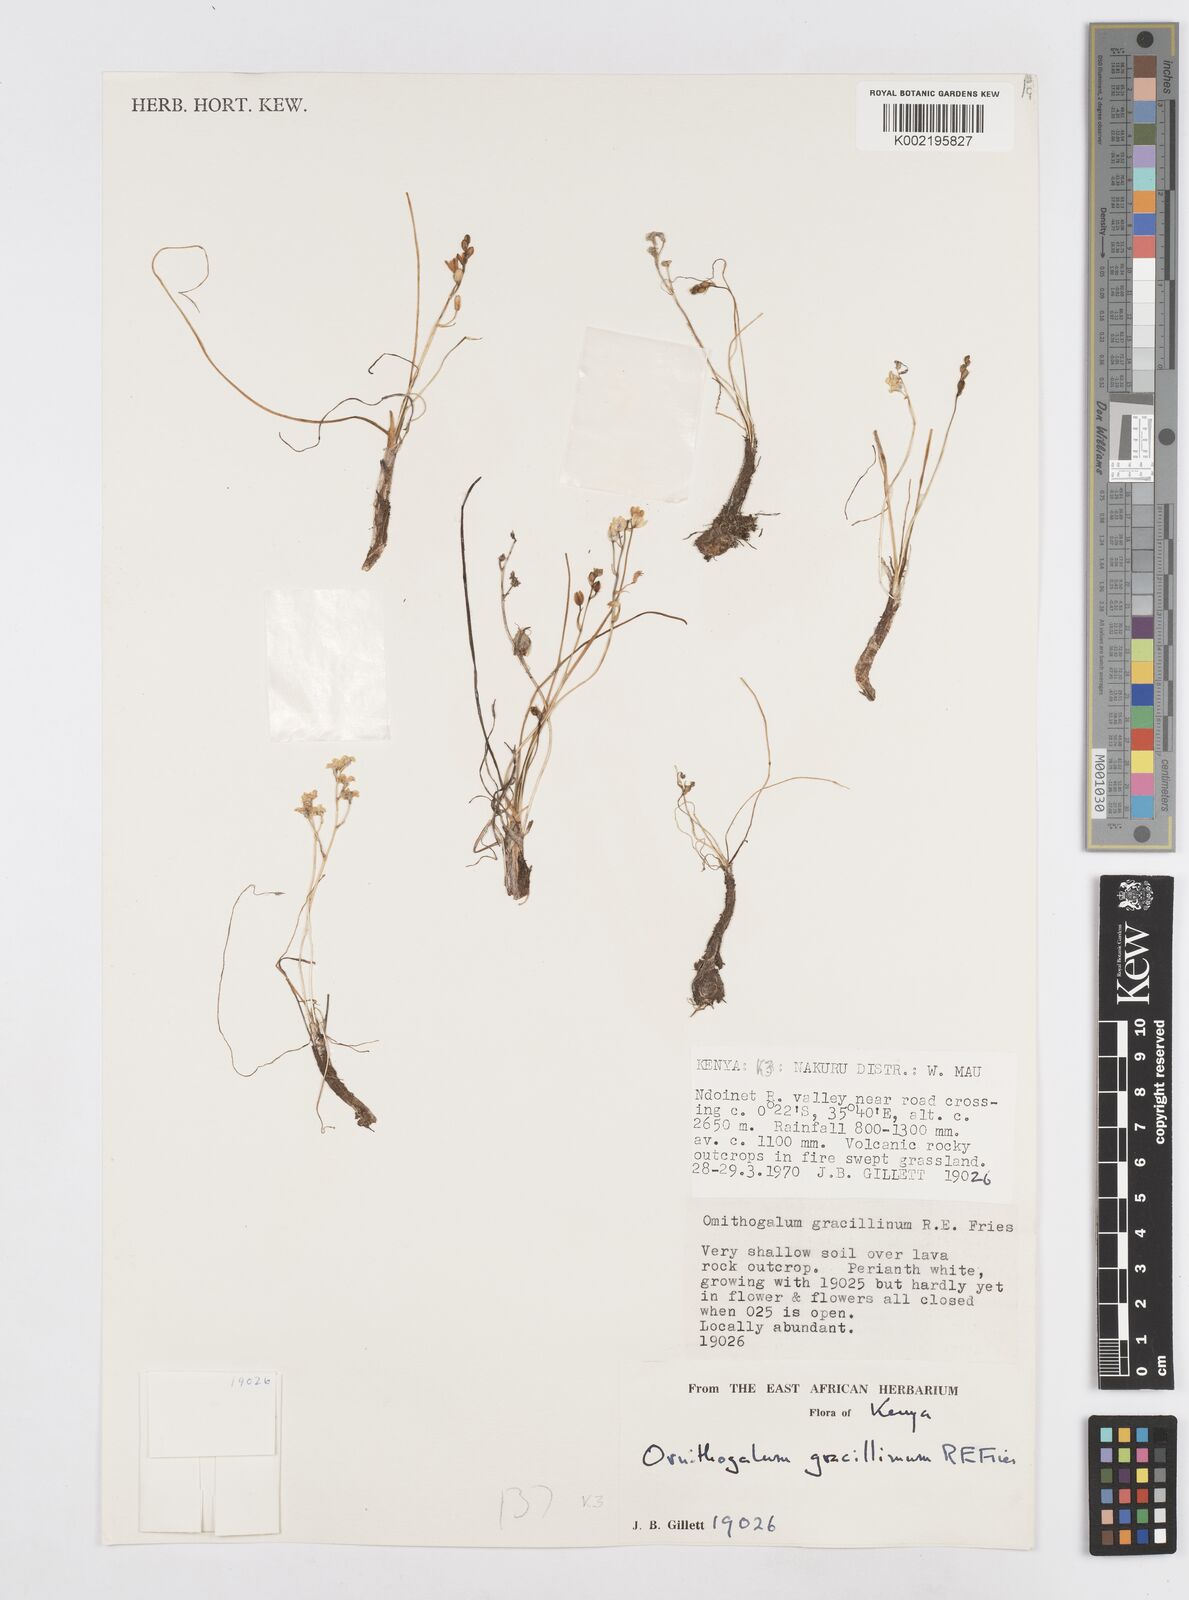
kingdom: Plantae
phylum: Tracheophyta
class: Liliopsida
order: Asparagales
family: Asparagaceae
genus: Ornithogalum
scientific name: Ornithogalum gracillimum
